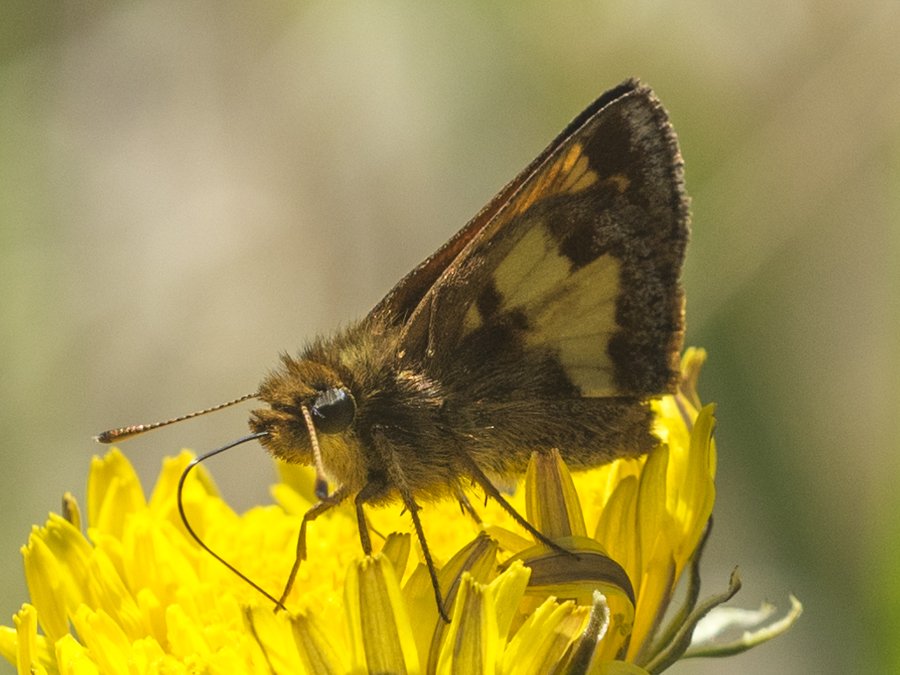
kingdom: Animalia
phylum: Arthropoda
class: Insecta
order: Lepidoptera
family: Hesperiidae
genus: Lon
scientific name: Lon hobomok
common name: Hobomok Skipper
